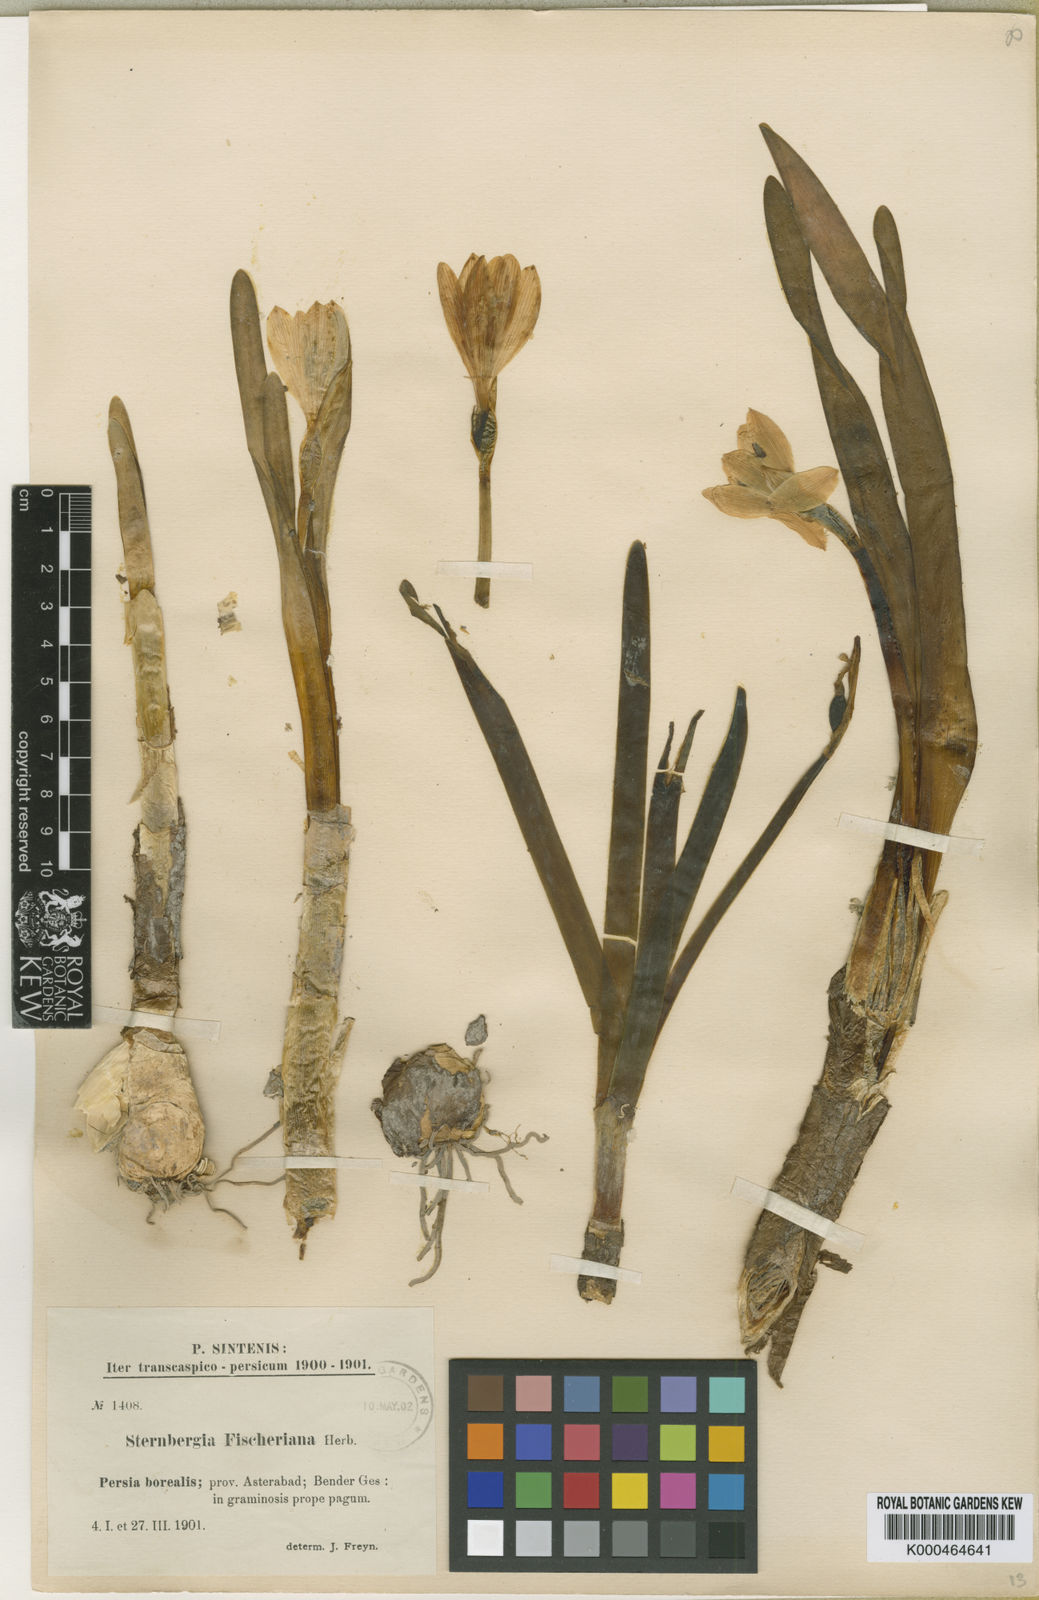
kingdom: Plantae
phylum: Tracheophyta
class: Liliopsida
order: Asparagales
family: Amaryllidaceae
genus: Sternbergia
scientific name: Sternbergia
